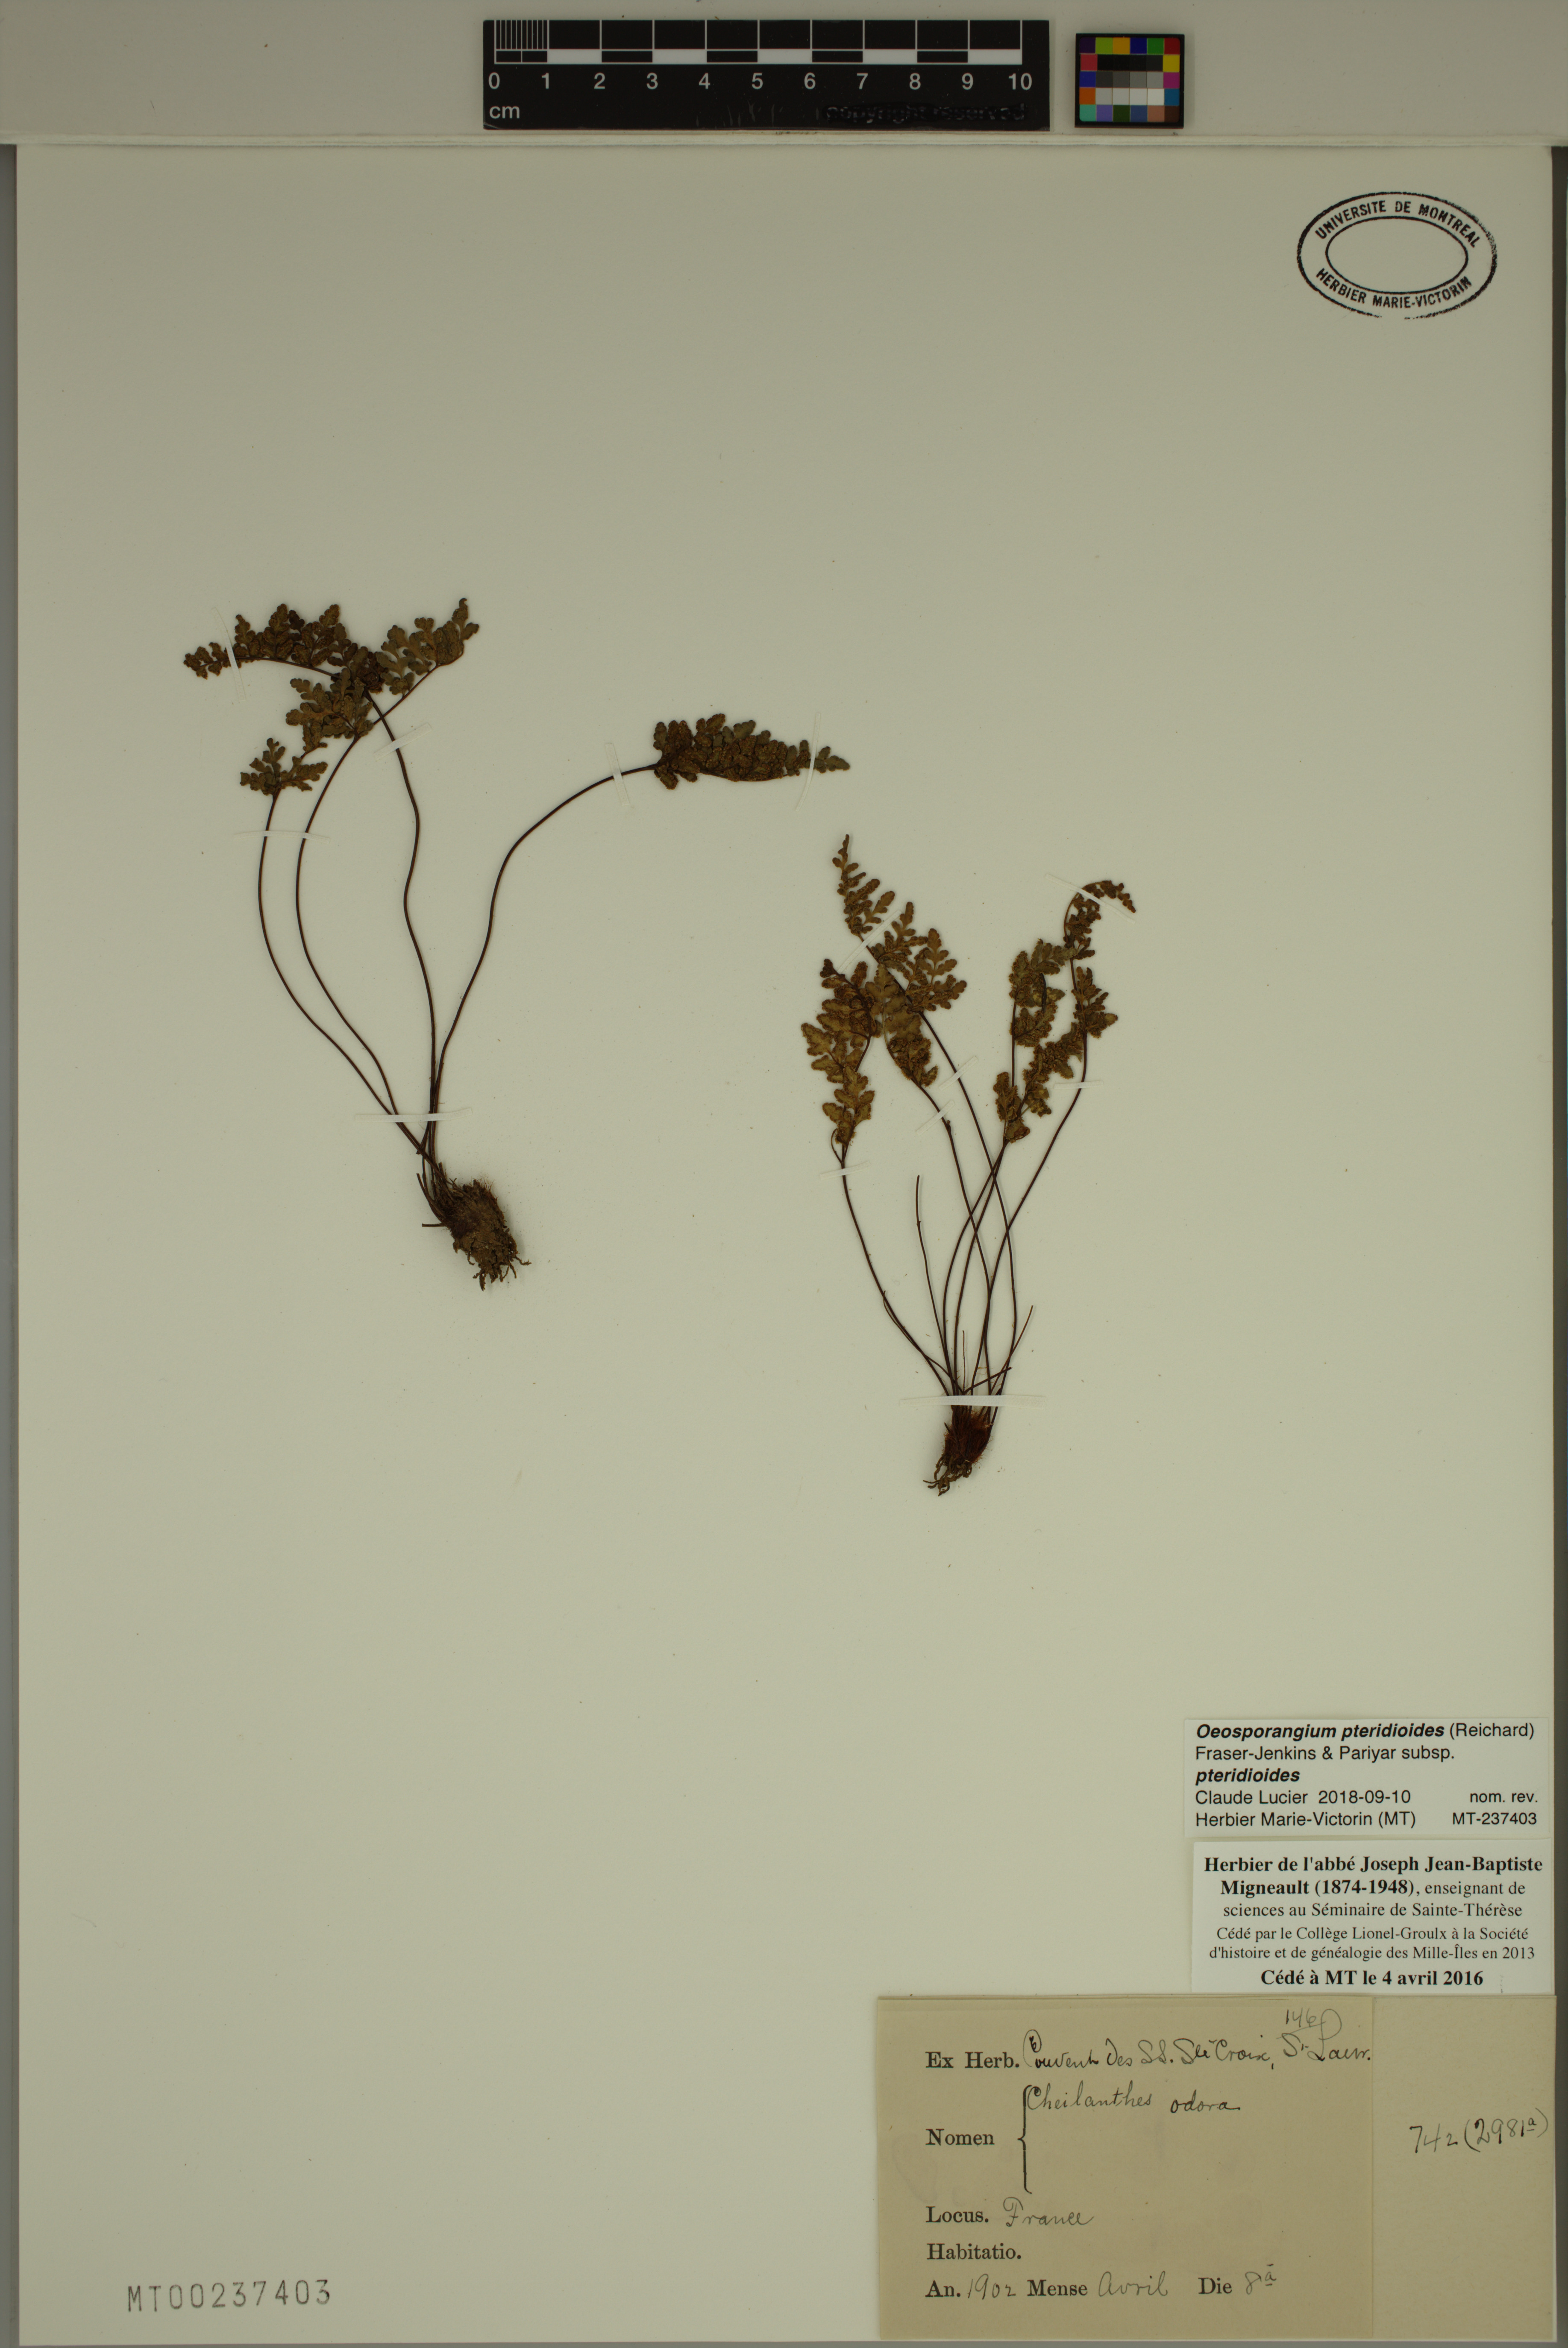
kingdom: Plantae
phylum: Tracheophyta
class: Polypodiopsida
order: Polypodiales
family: Pteridaceae
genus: Oeosporangium
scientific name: Oeosporangium pteridioides
